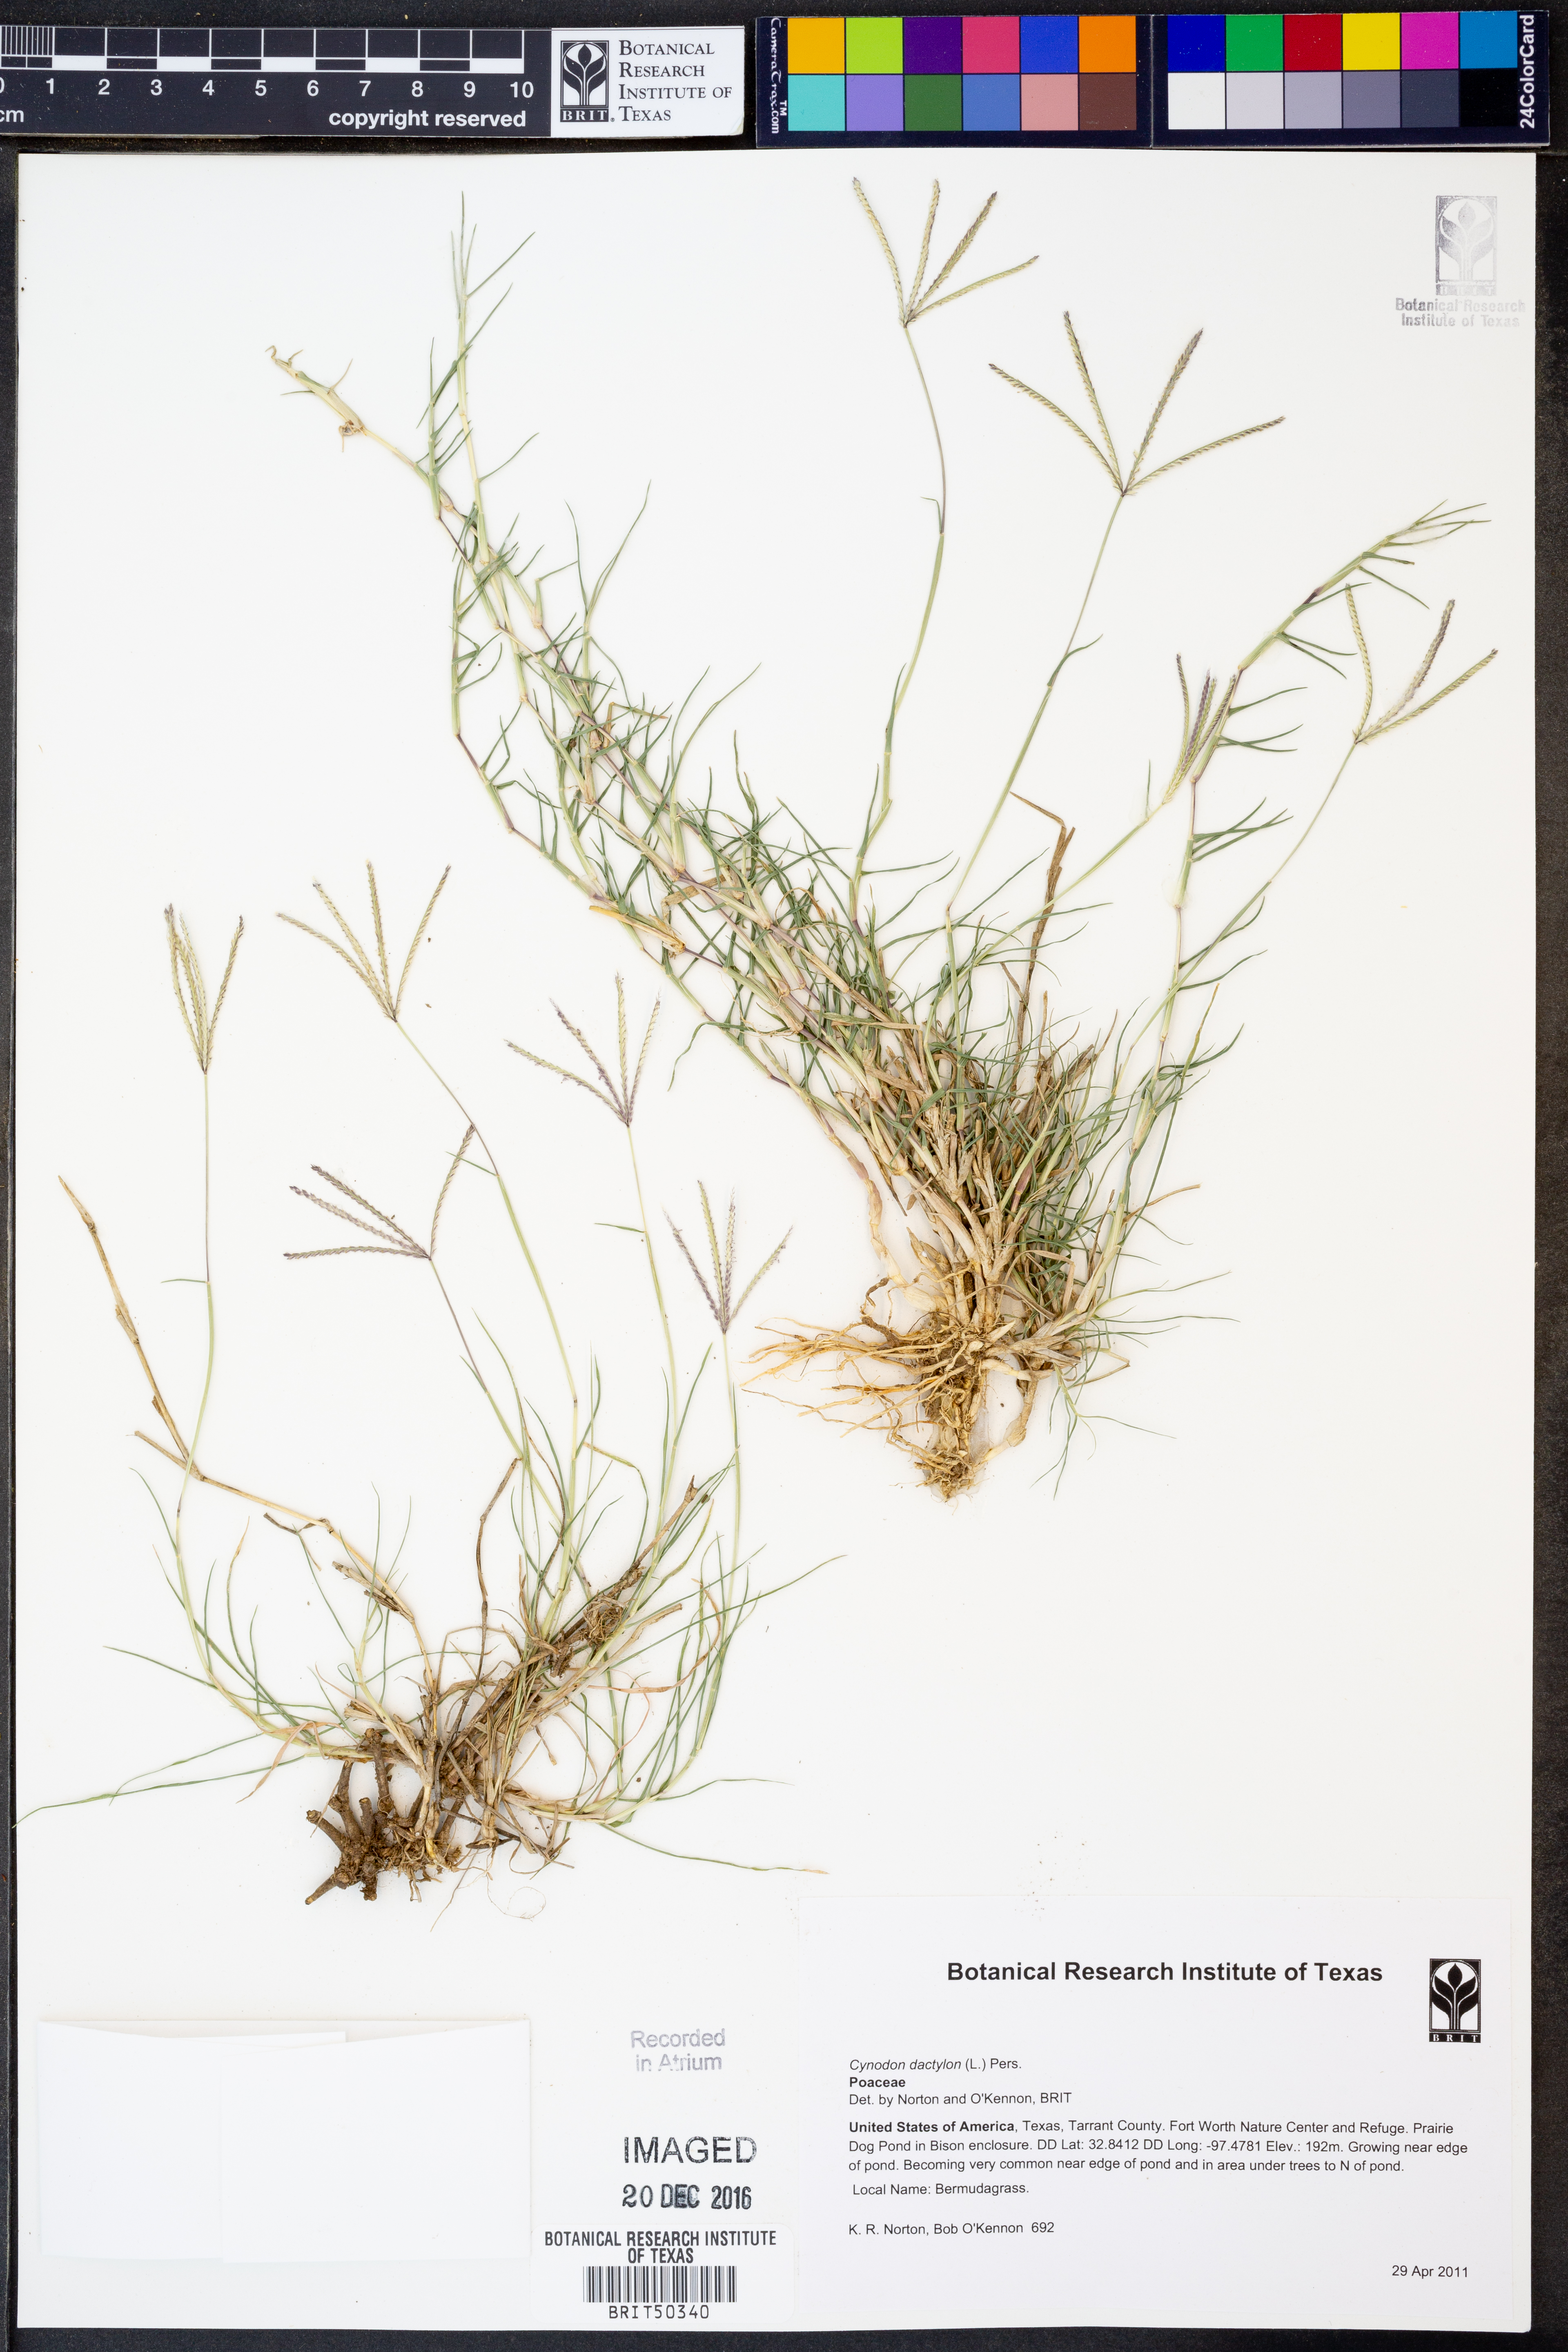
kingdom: Plantae
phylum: Tracheophyta
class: Liliopsida
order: Poales
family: Poaceae
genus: Cynodon
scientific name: Cynodon dactylon
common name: Bermuda grass
